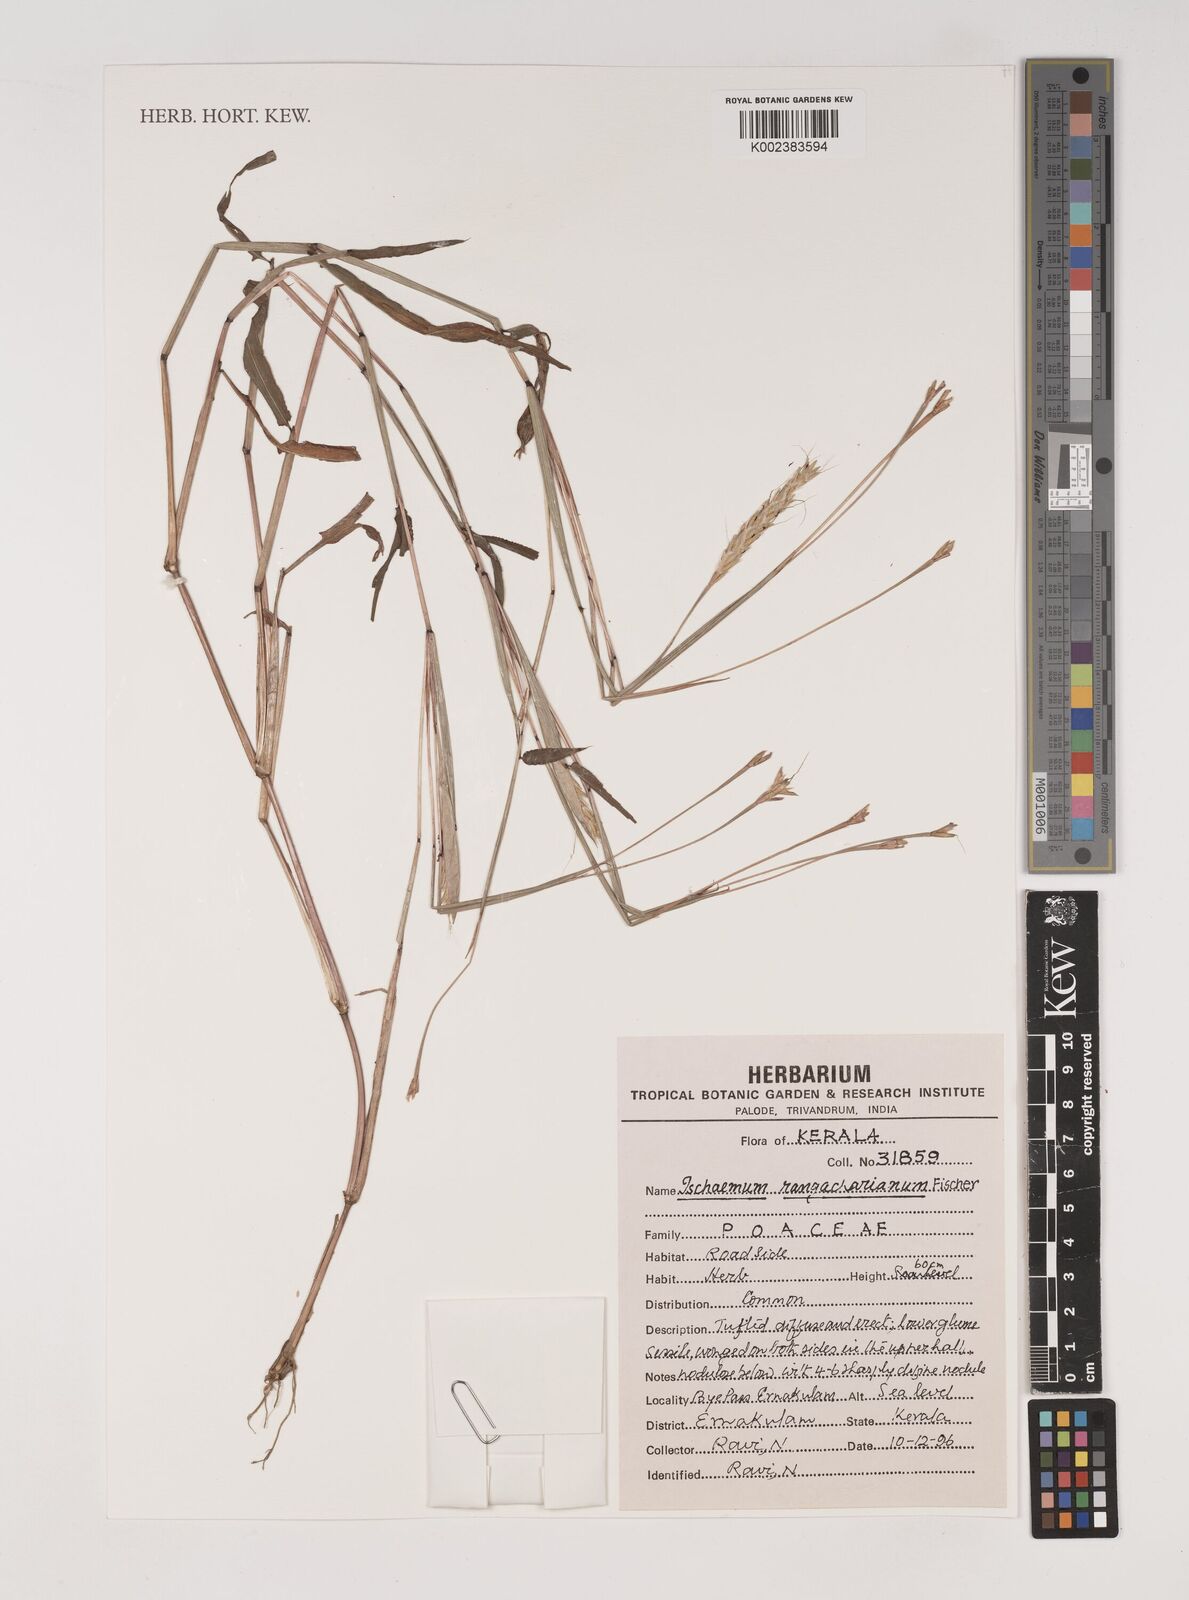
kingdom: Plantae
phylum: Tracheophyta
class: Liliopsida
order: Poales
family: Poaceae
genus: Ischaemum
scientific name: Ischaemum rangacharianum
